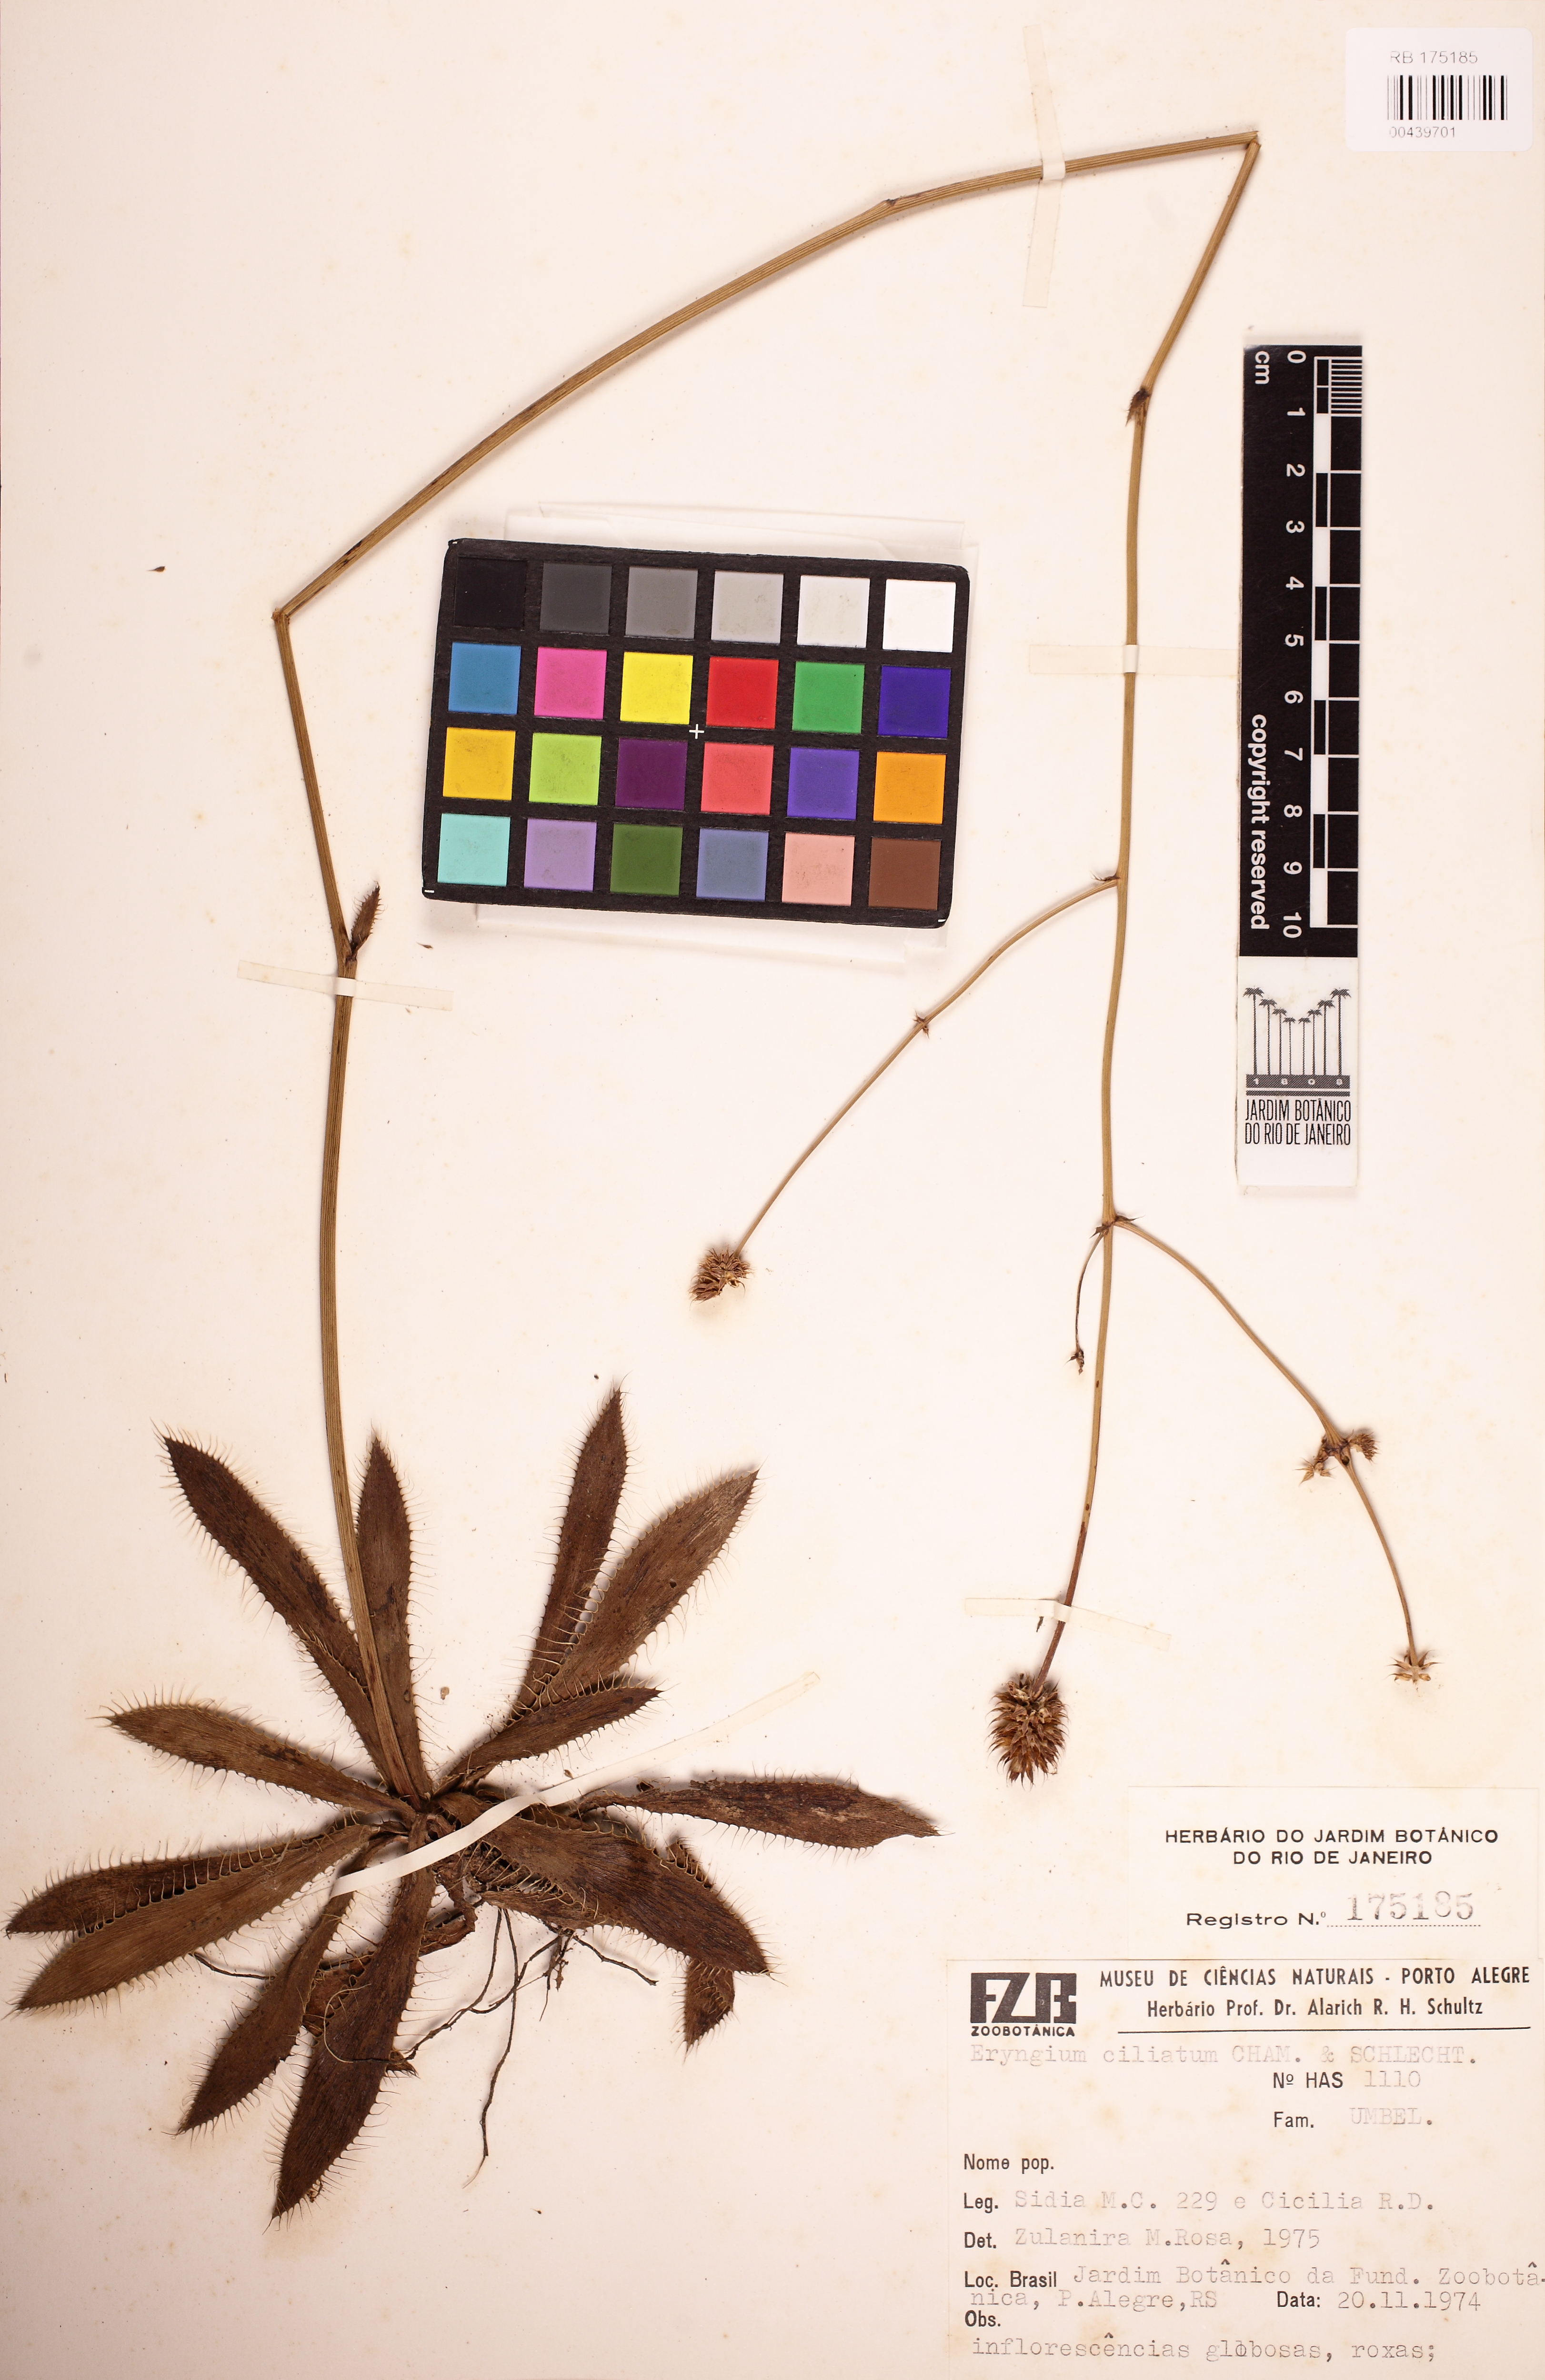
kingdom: Plantae
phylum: Tracheophyta
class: Magnoliopsida
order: Apiales
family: Apiaceae
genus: Eryngium
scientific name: Eryngium ciliatum
